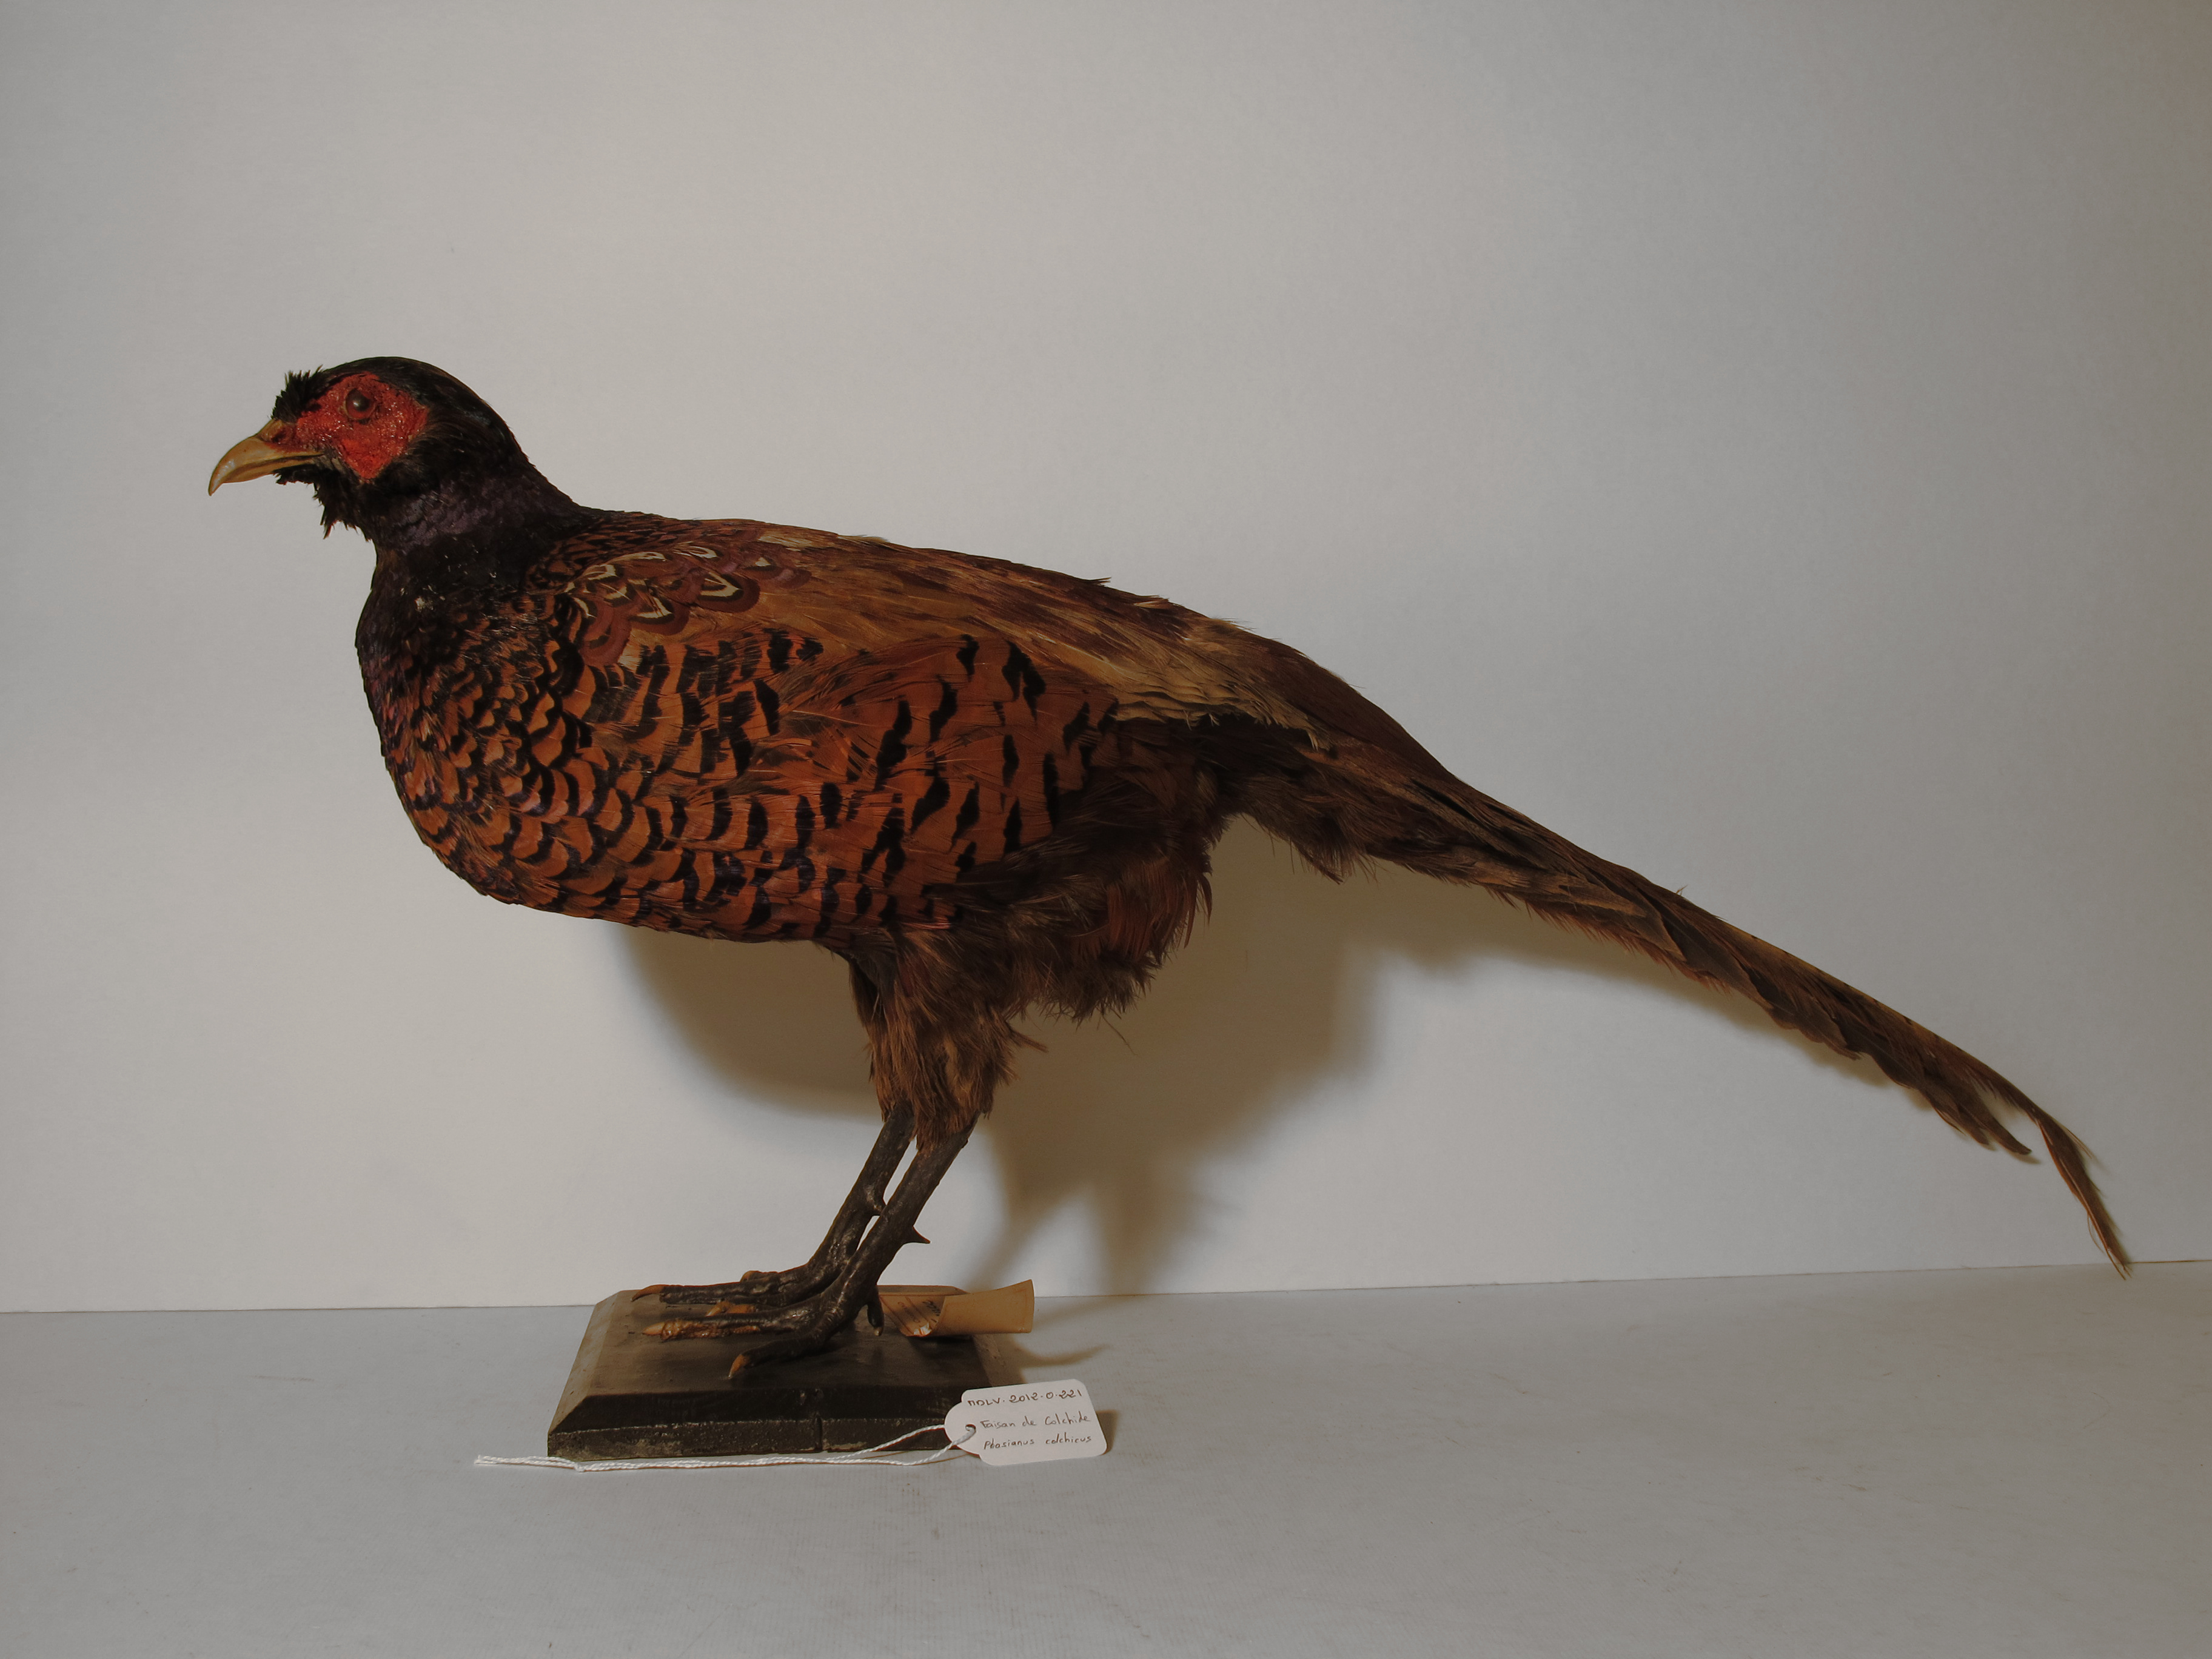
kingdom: Animalia
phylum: Chordata
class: Aves
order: Galliformes
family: Phasianidae
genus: Phasianus
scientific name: Phasianus colchicus
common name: Ring-necked Pheasant
